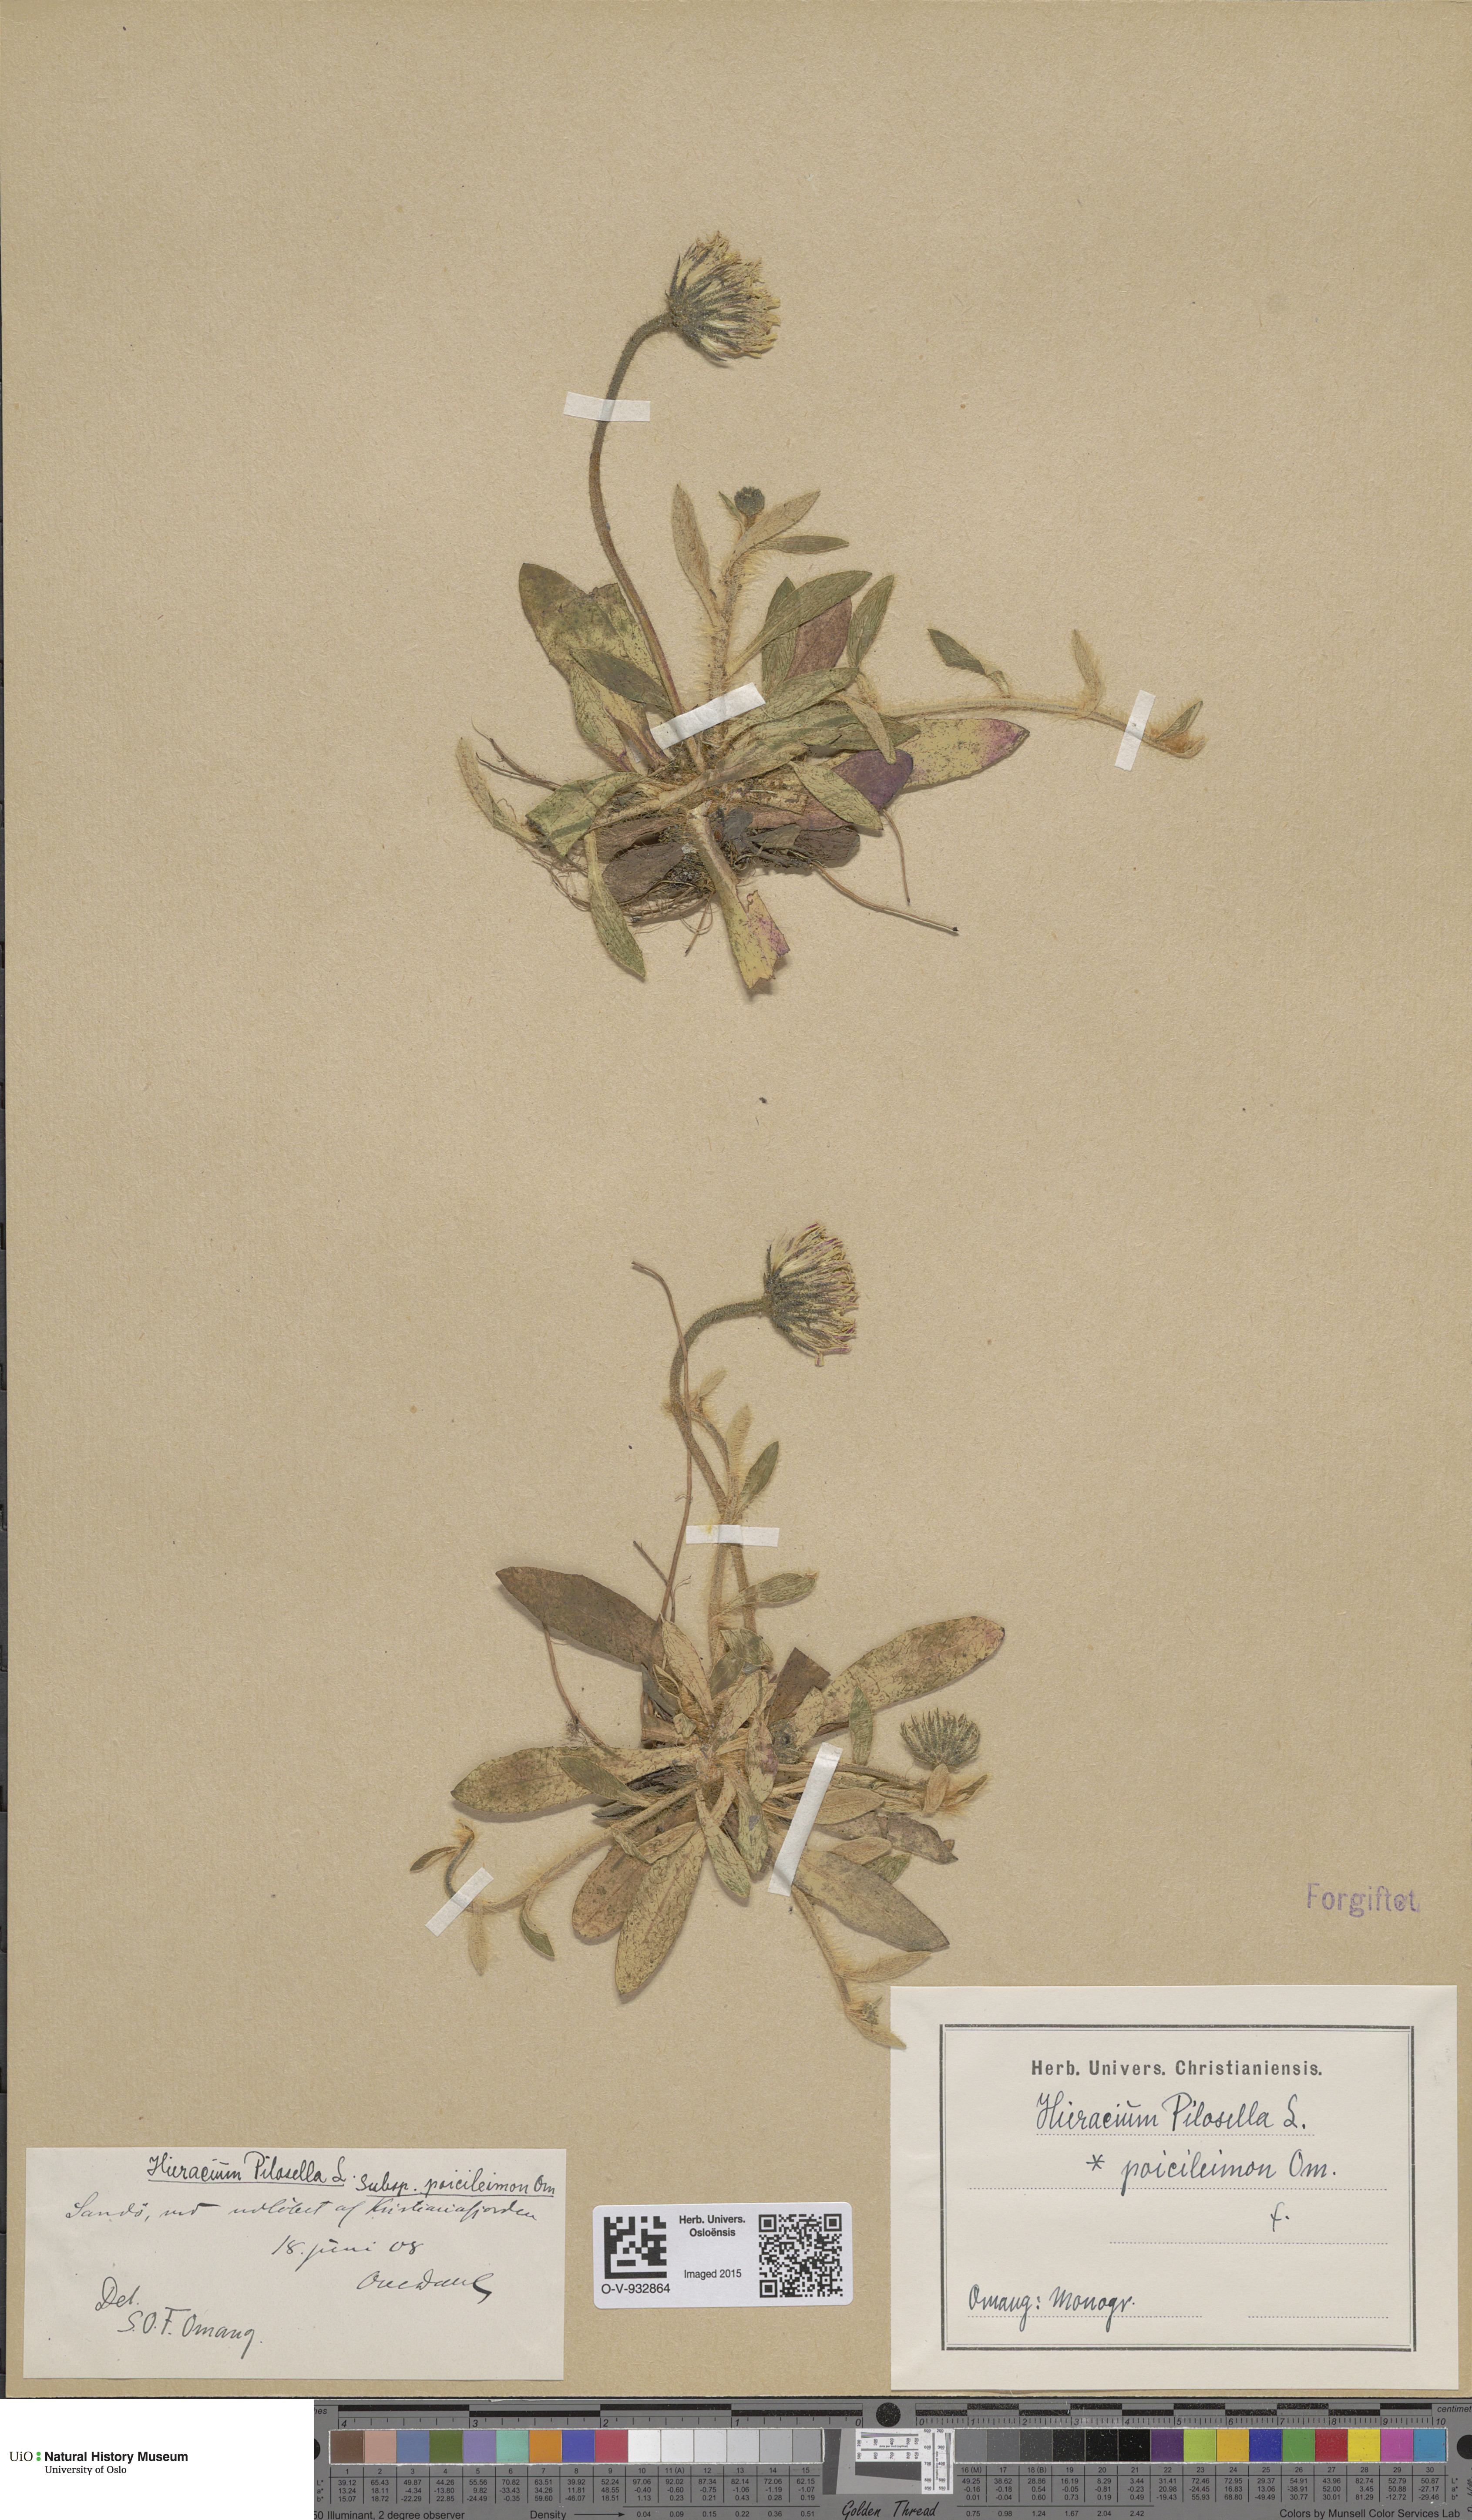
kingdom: Plantae
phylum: Tracheophyta
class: Magnoliopsida
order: Asterales
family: Asteraceae
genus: Pilosella
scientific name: Pilosella officinarum
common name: Mouse-ear hawkweed
